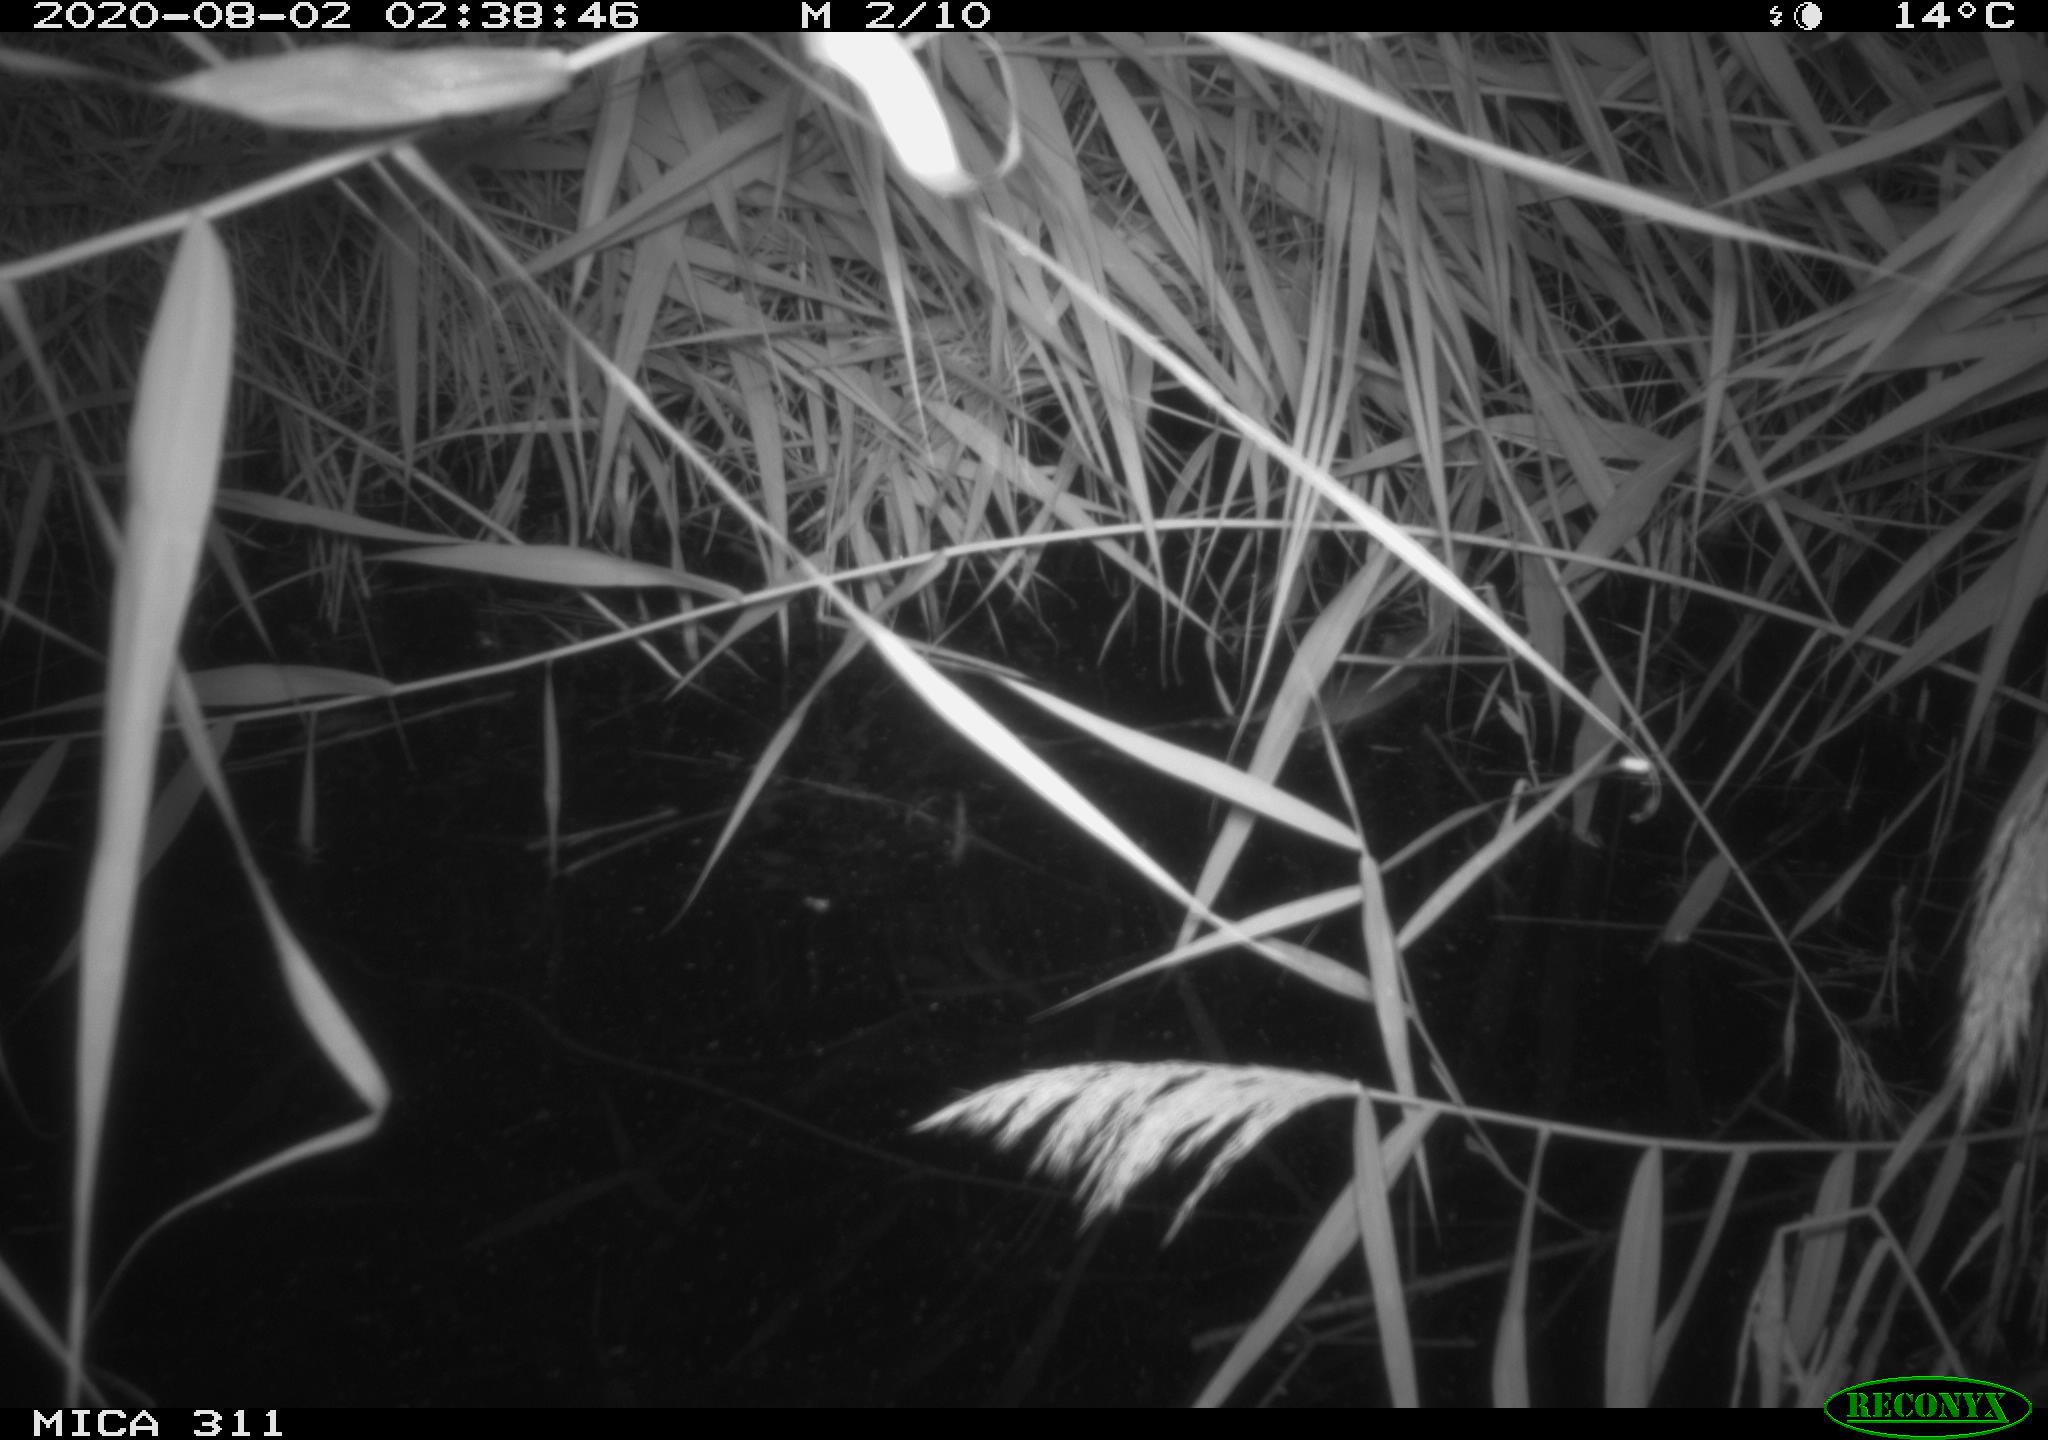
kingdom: Animalia
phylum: Chordata
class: Mammalia
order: Rodentia
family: Muridae
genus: Rattus
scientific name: Rattus norvegicus
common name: Brown rat
